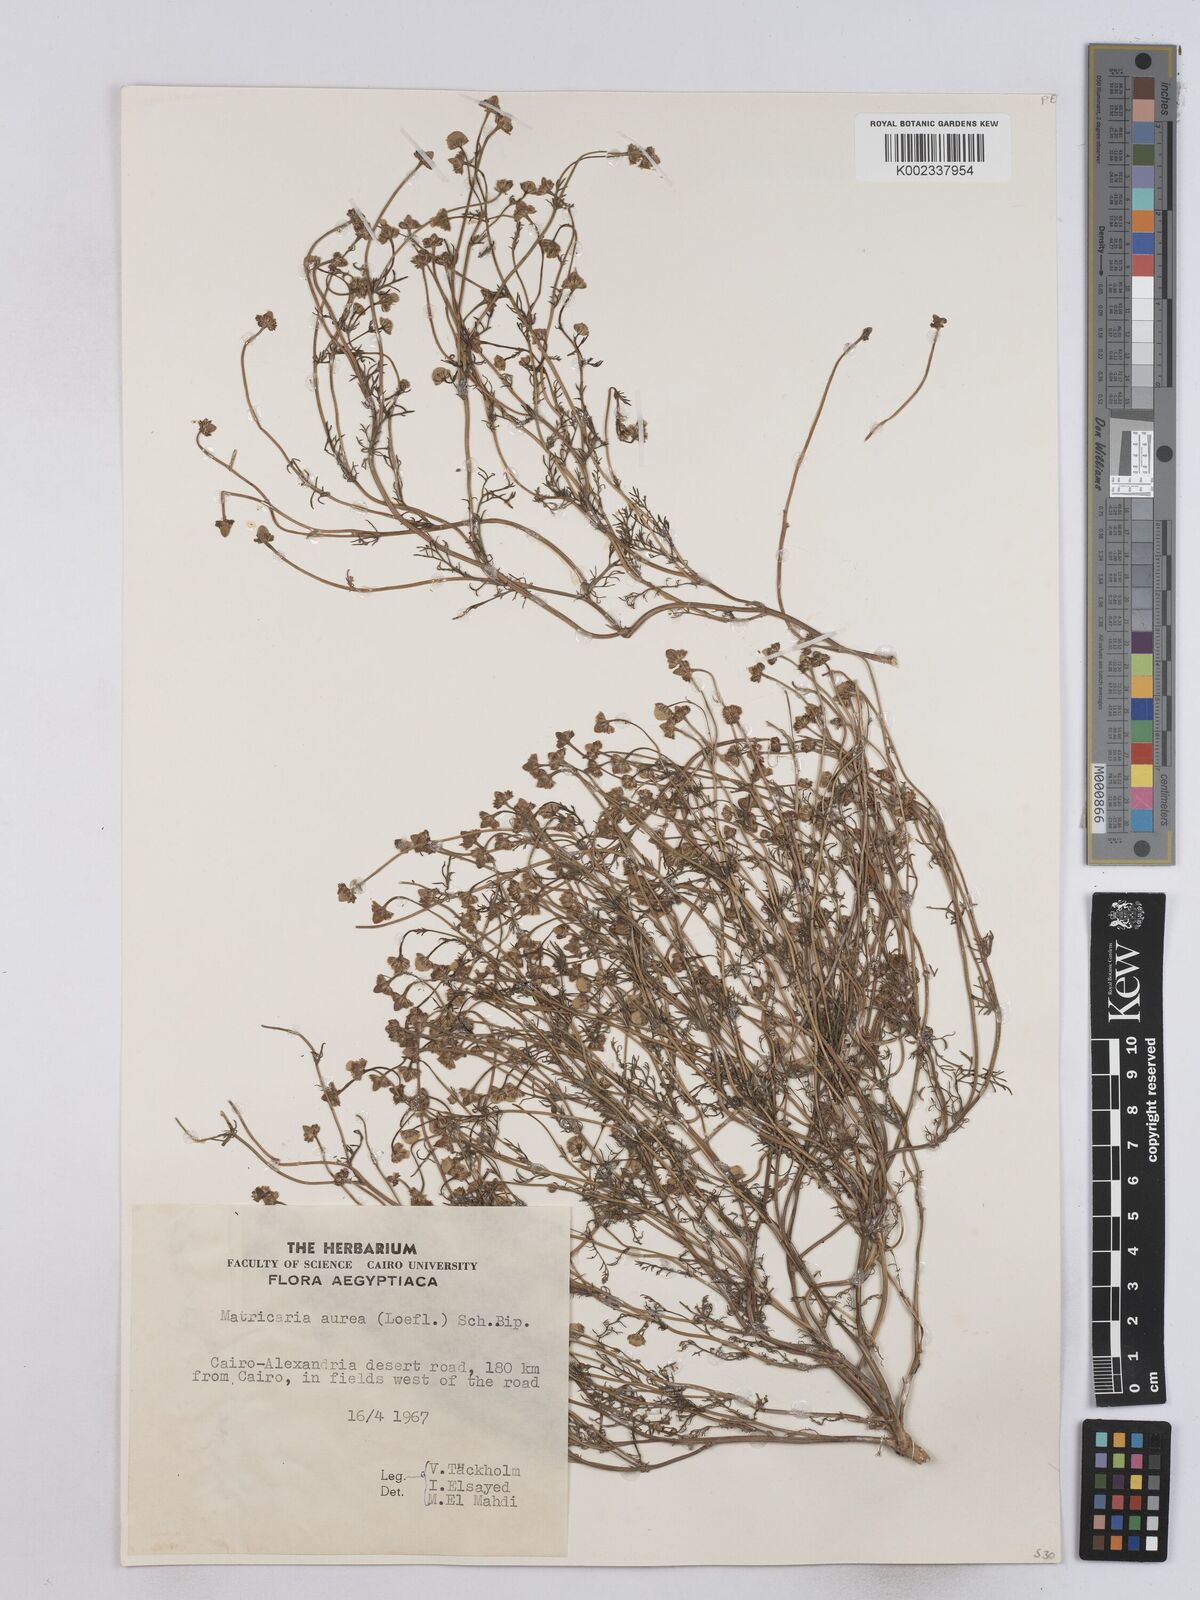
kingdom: Plantae
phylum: Tracheophyta
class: Magnoliopsida
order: Asterales
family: Asteraceae
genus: Matricaria
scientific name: Matricaria
